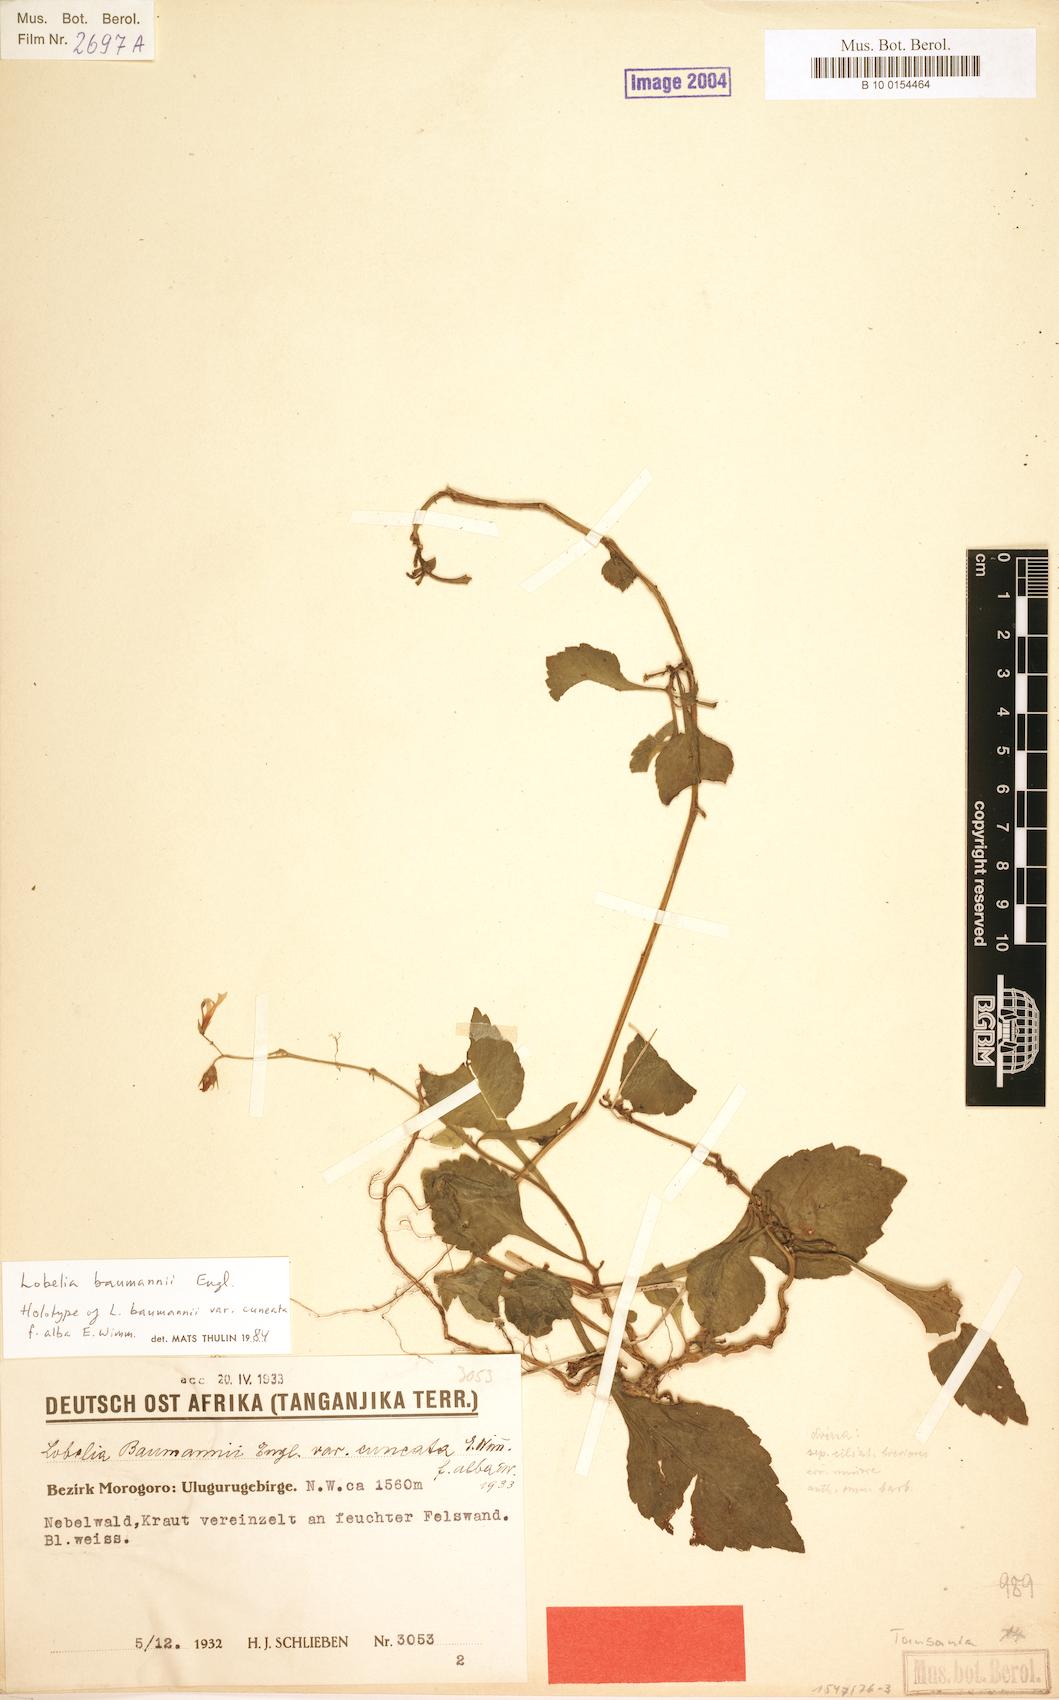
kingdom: Plantae
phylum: Tracheophyta
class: Magnoliopsida
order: Asterales
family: Campanulaceae
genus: Lobelia
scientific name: Lobelia baumannii
